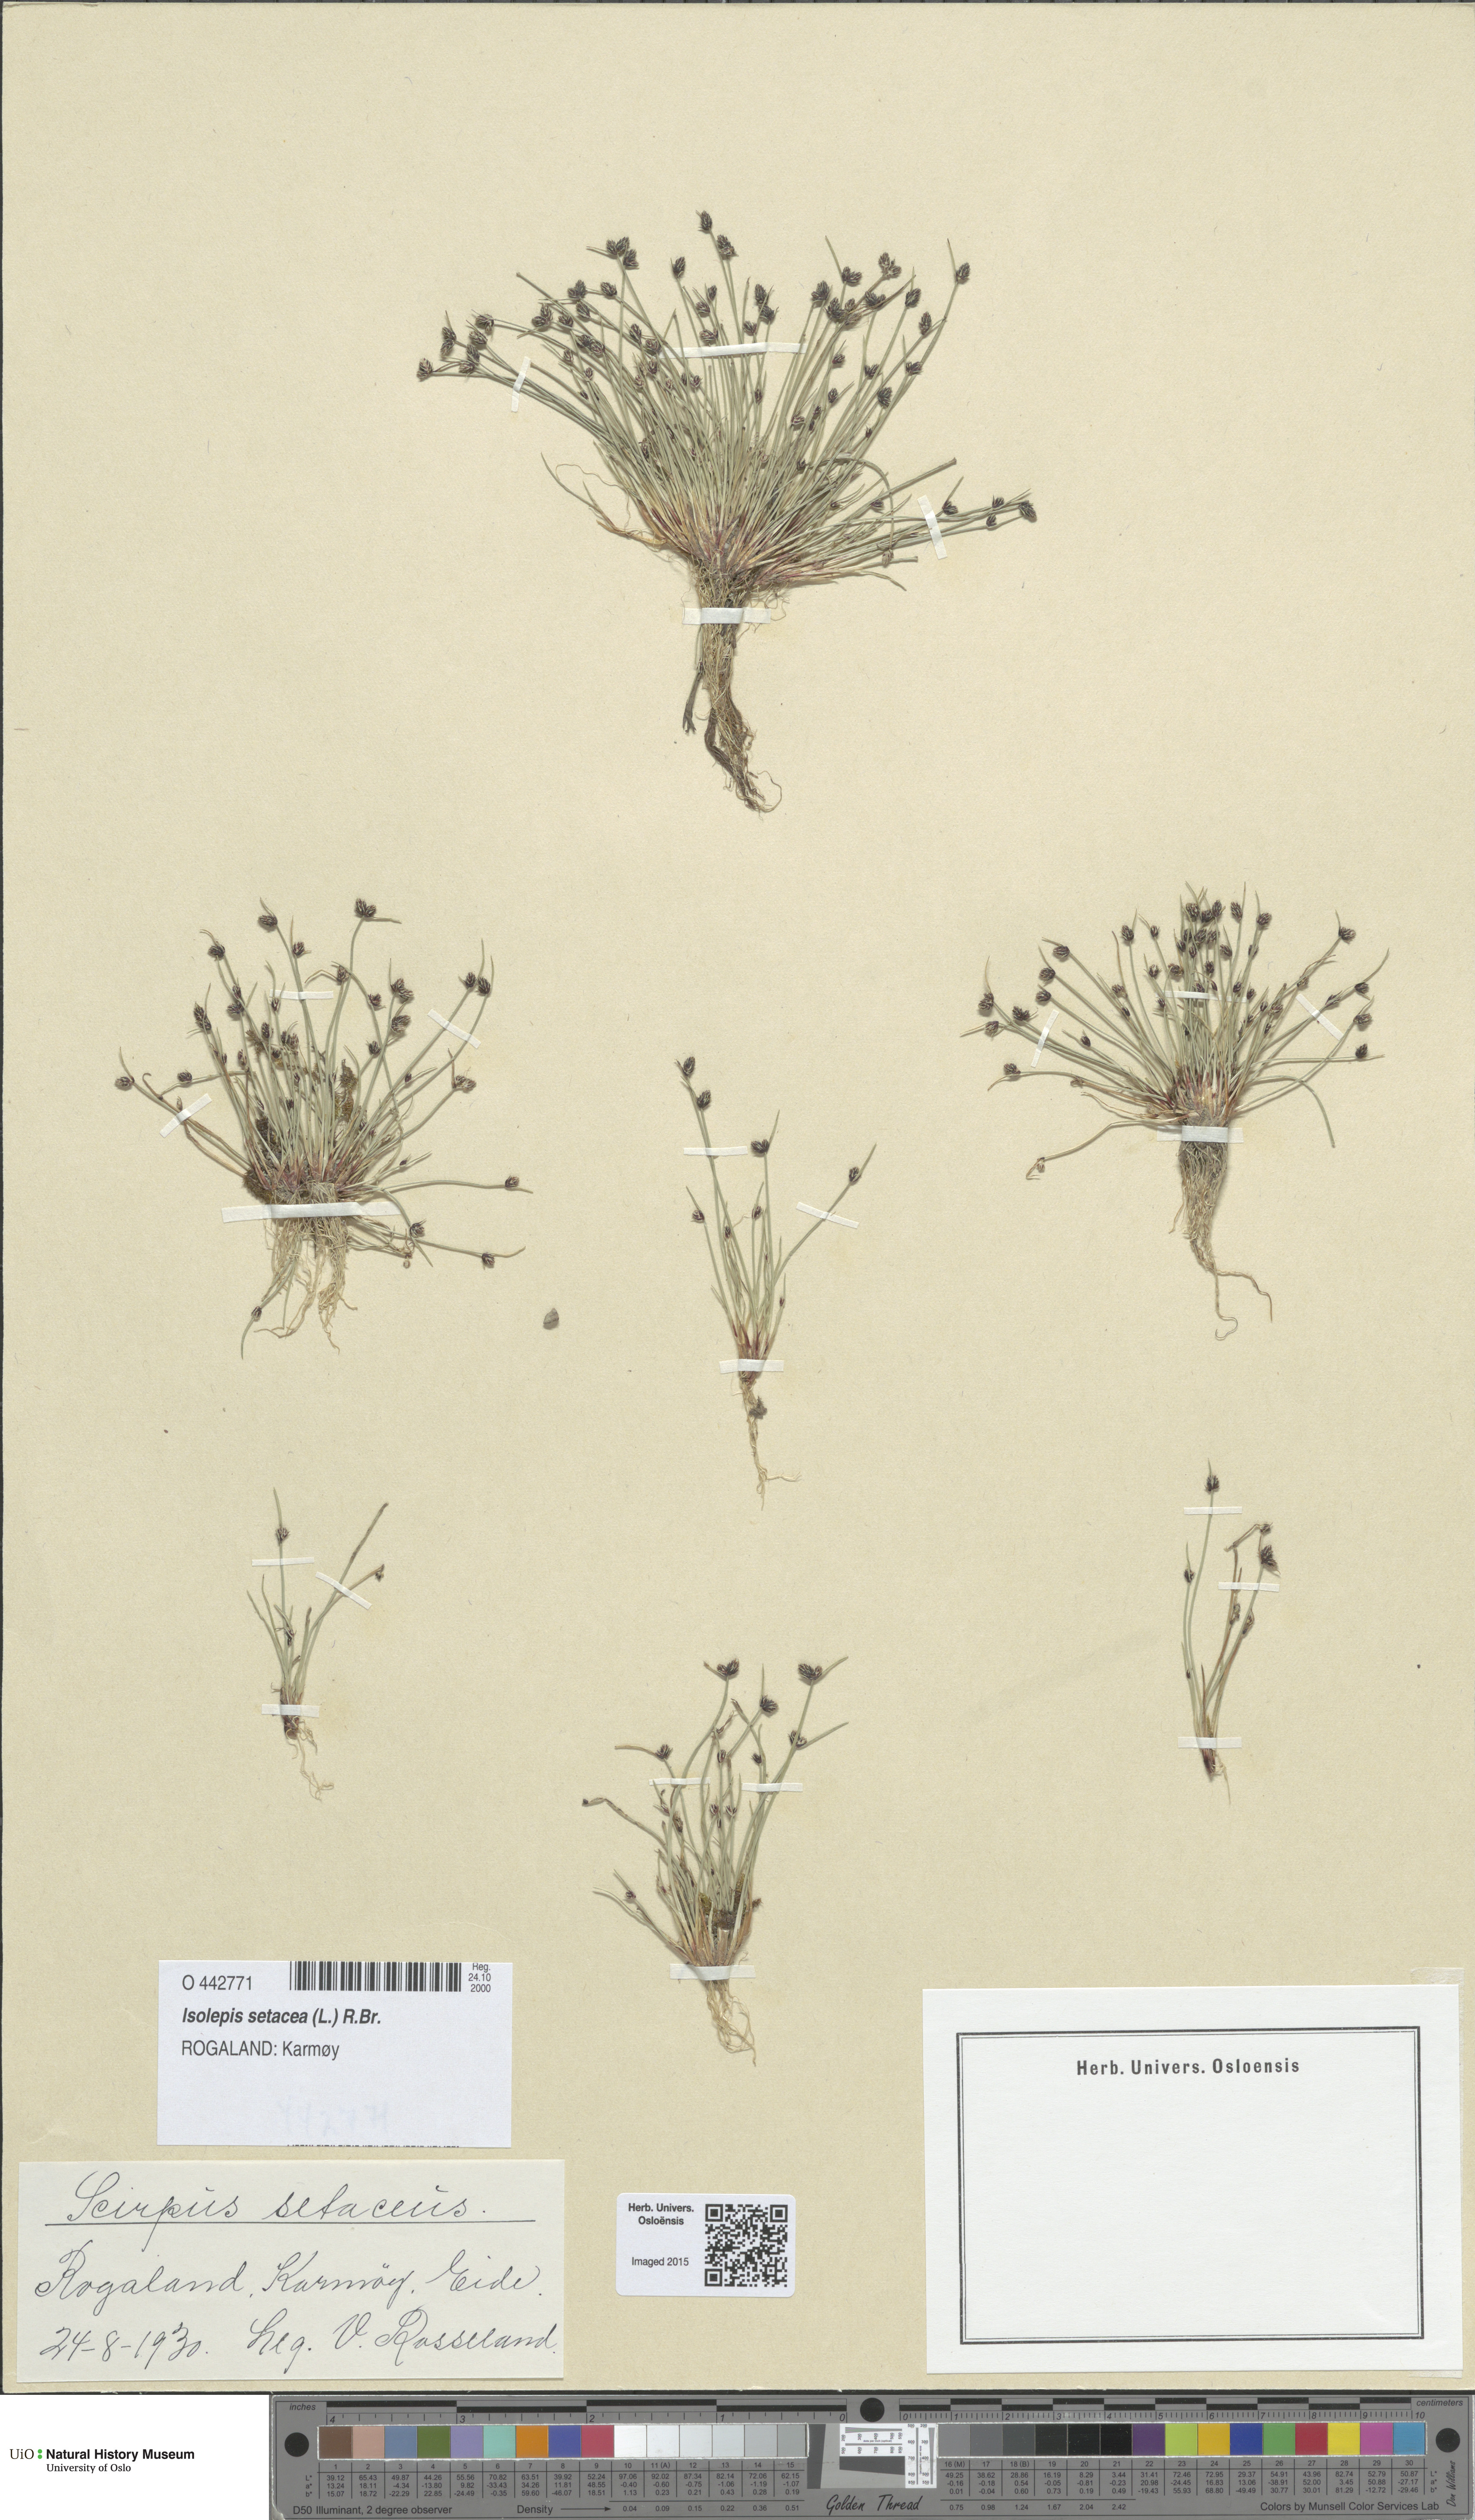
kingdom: Plantae
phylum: Tracheophyta
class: Liliopsida
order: Poales
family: Cyperaceae
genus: Isolepis
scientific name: Isolepis setacea
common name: Bristle club-rush
